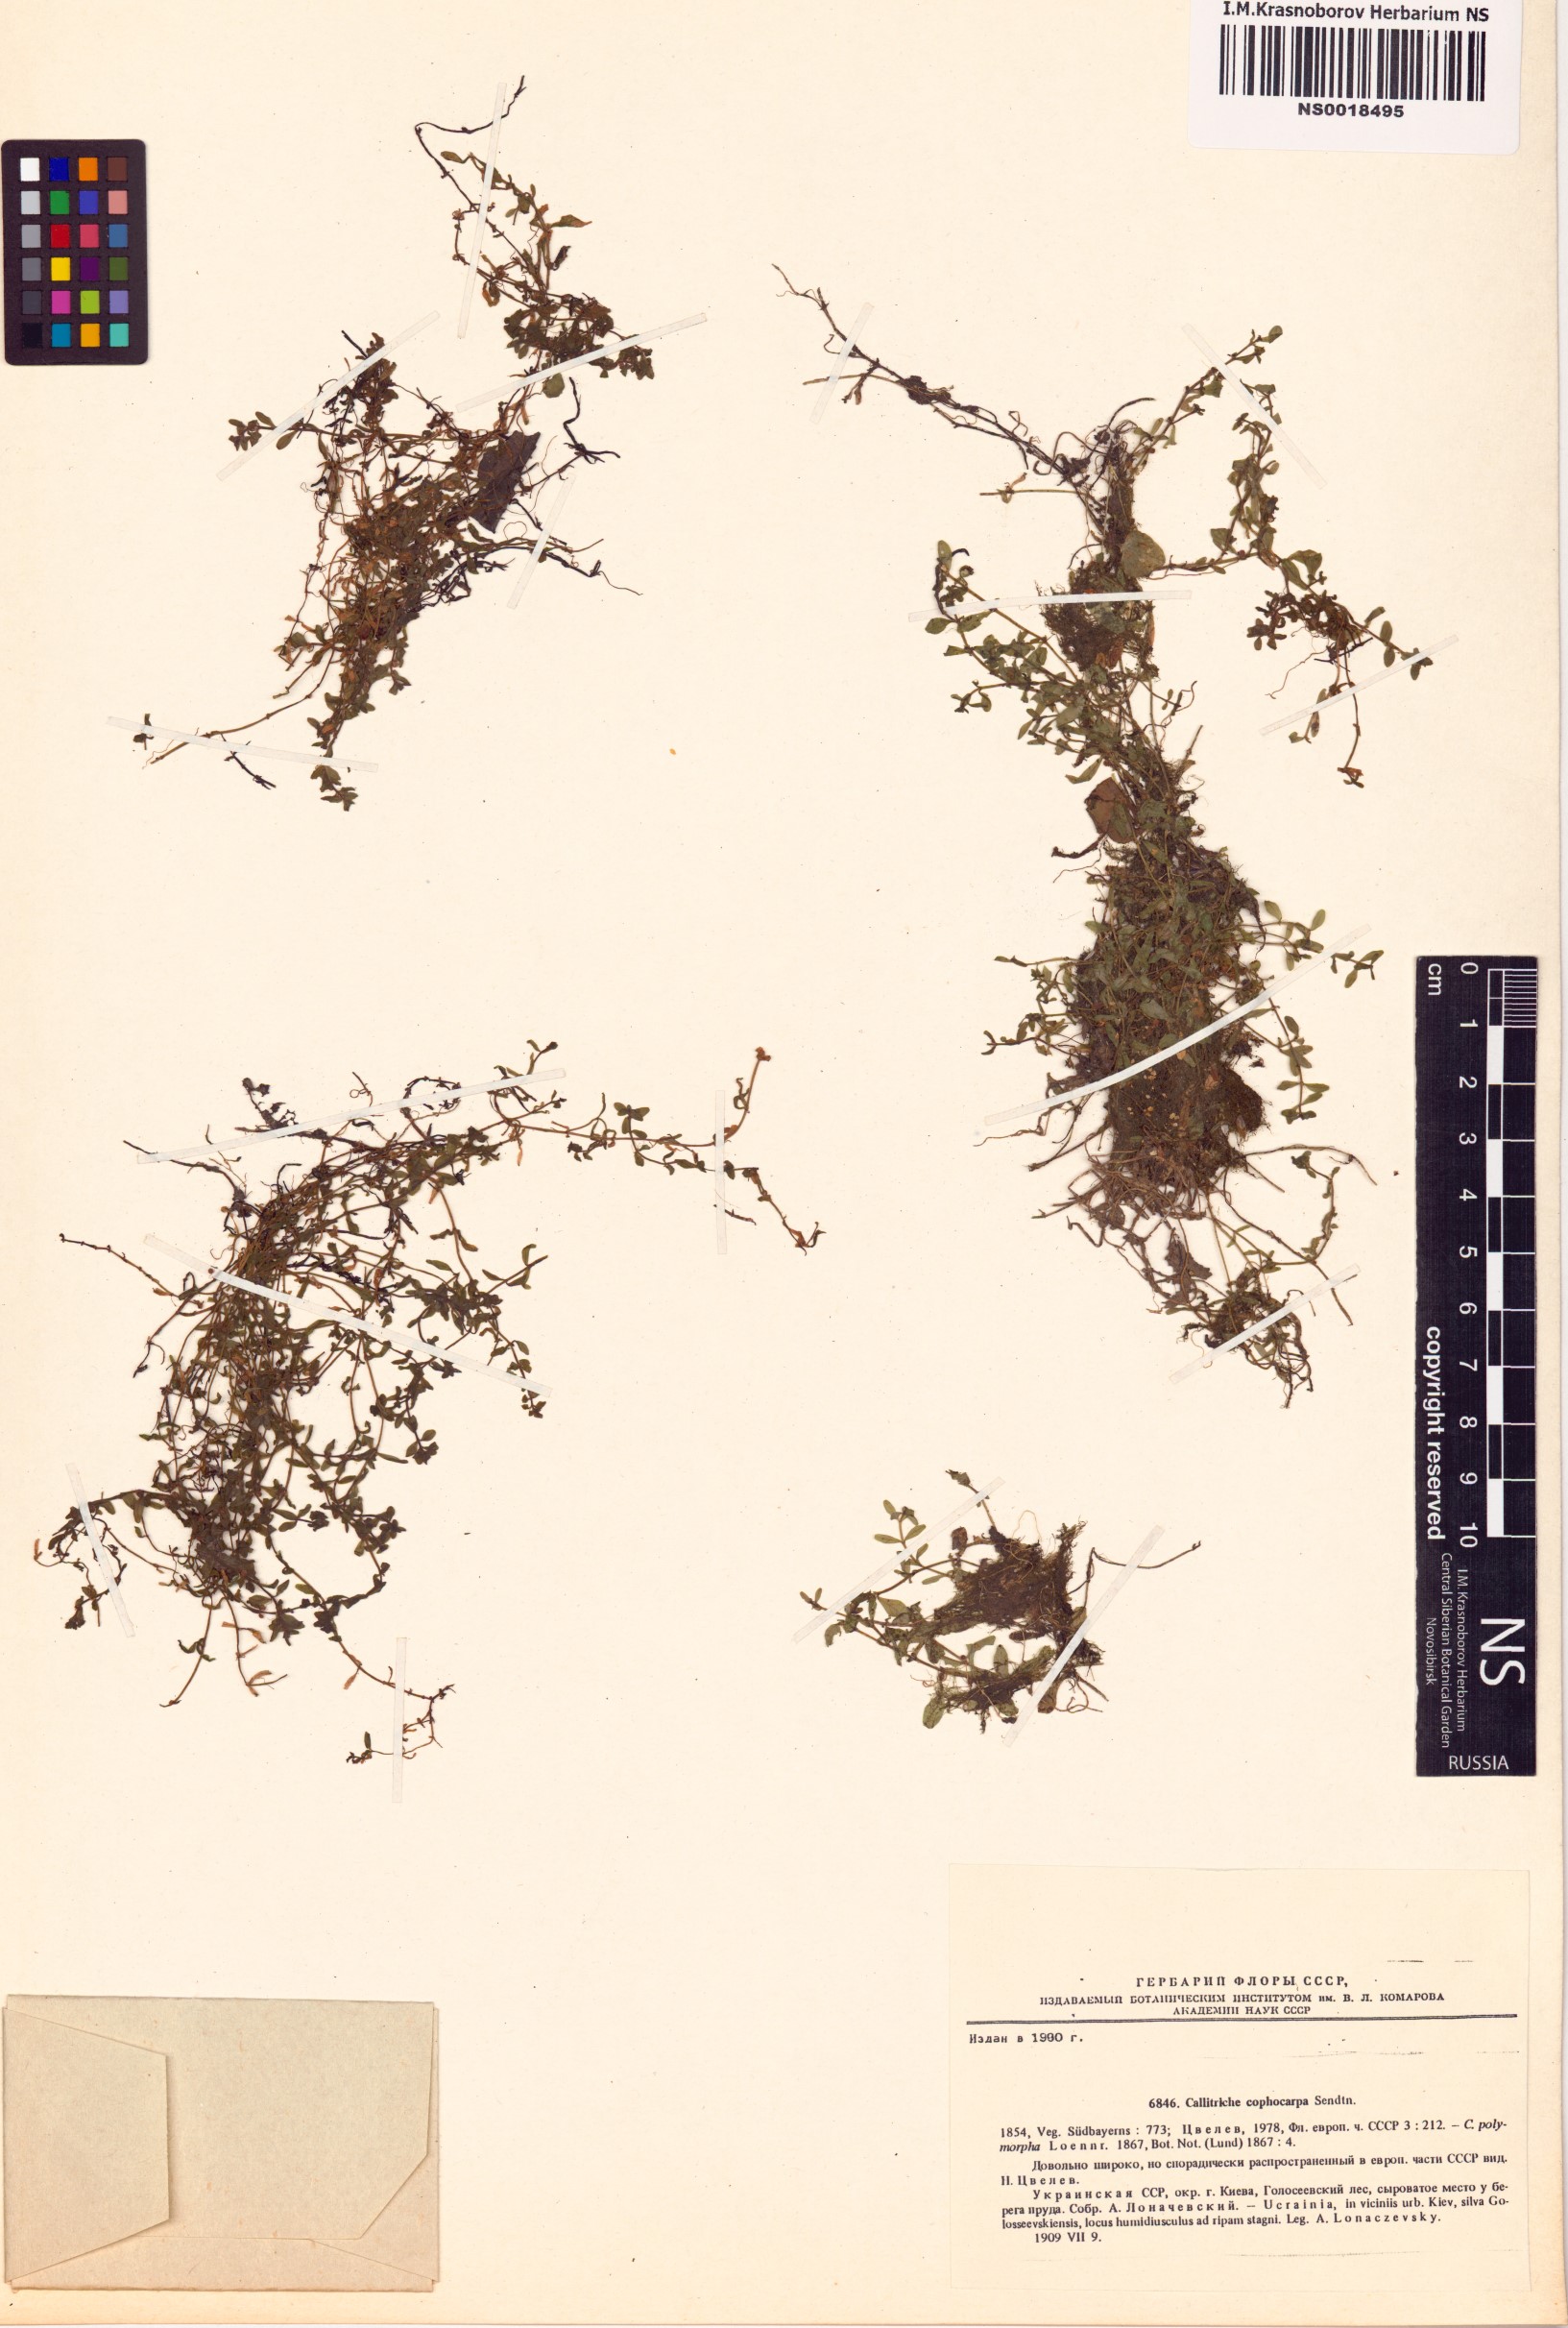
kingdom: Plantae
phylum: Tracheophyta
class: Magnoliopsida
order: Lamiales
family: Plantaginaceae
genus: Callitriche
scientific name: Callitriche cophocarpa
